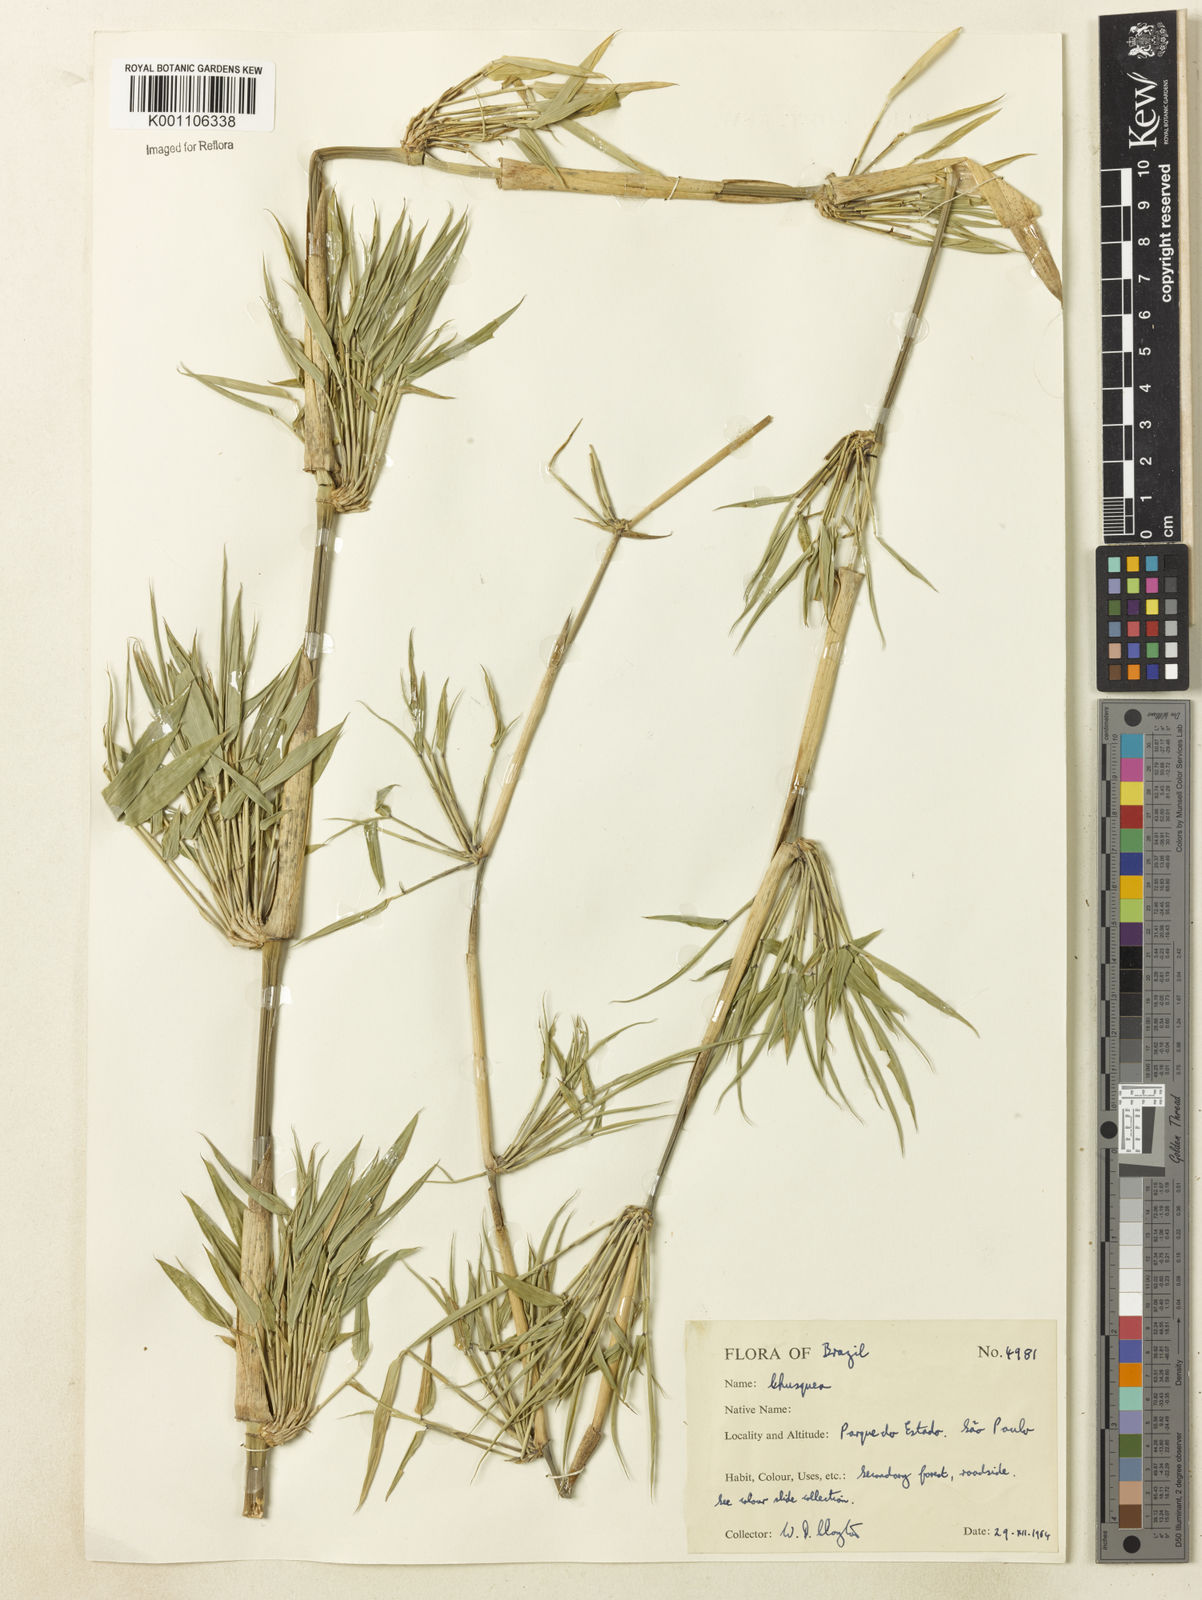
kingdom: Plantae
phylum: Tracheophyta
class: Liliopsida
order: Poales
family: Poaceae
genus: Chusquea
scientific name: Chusquea
